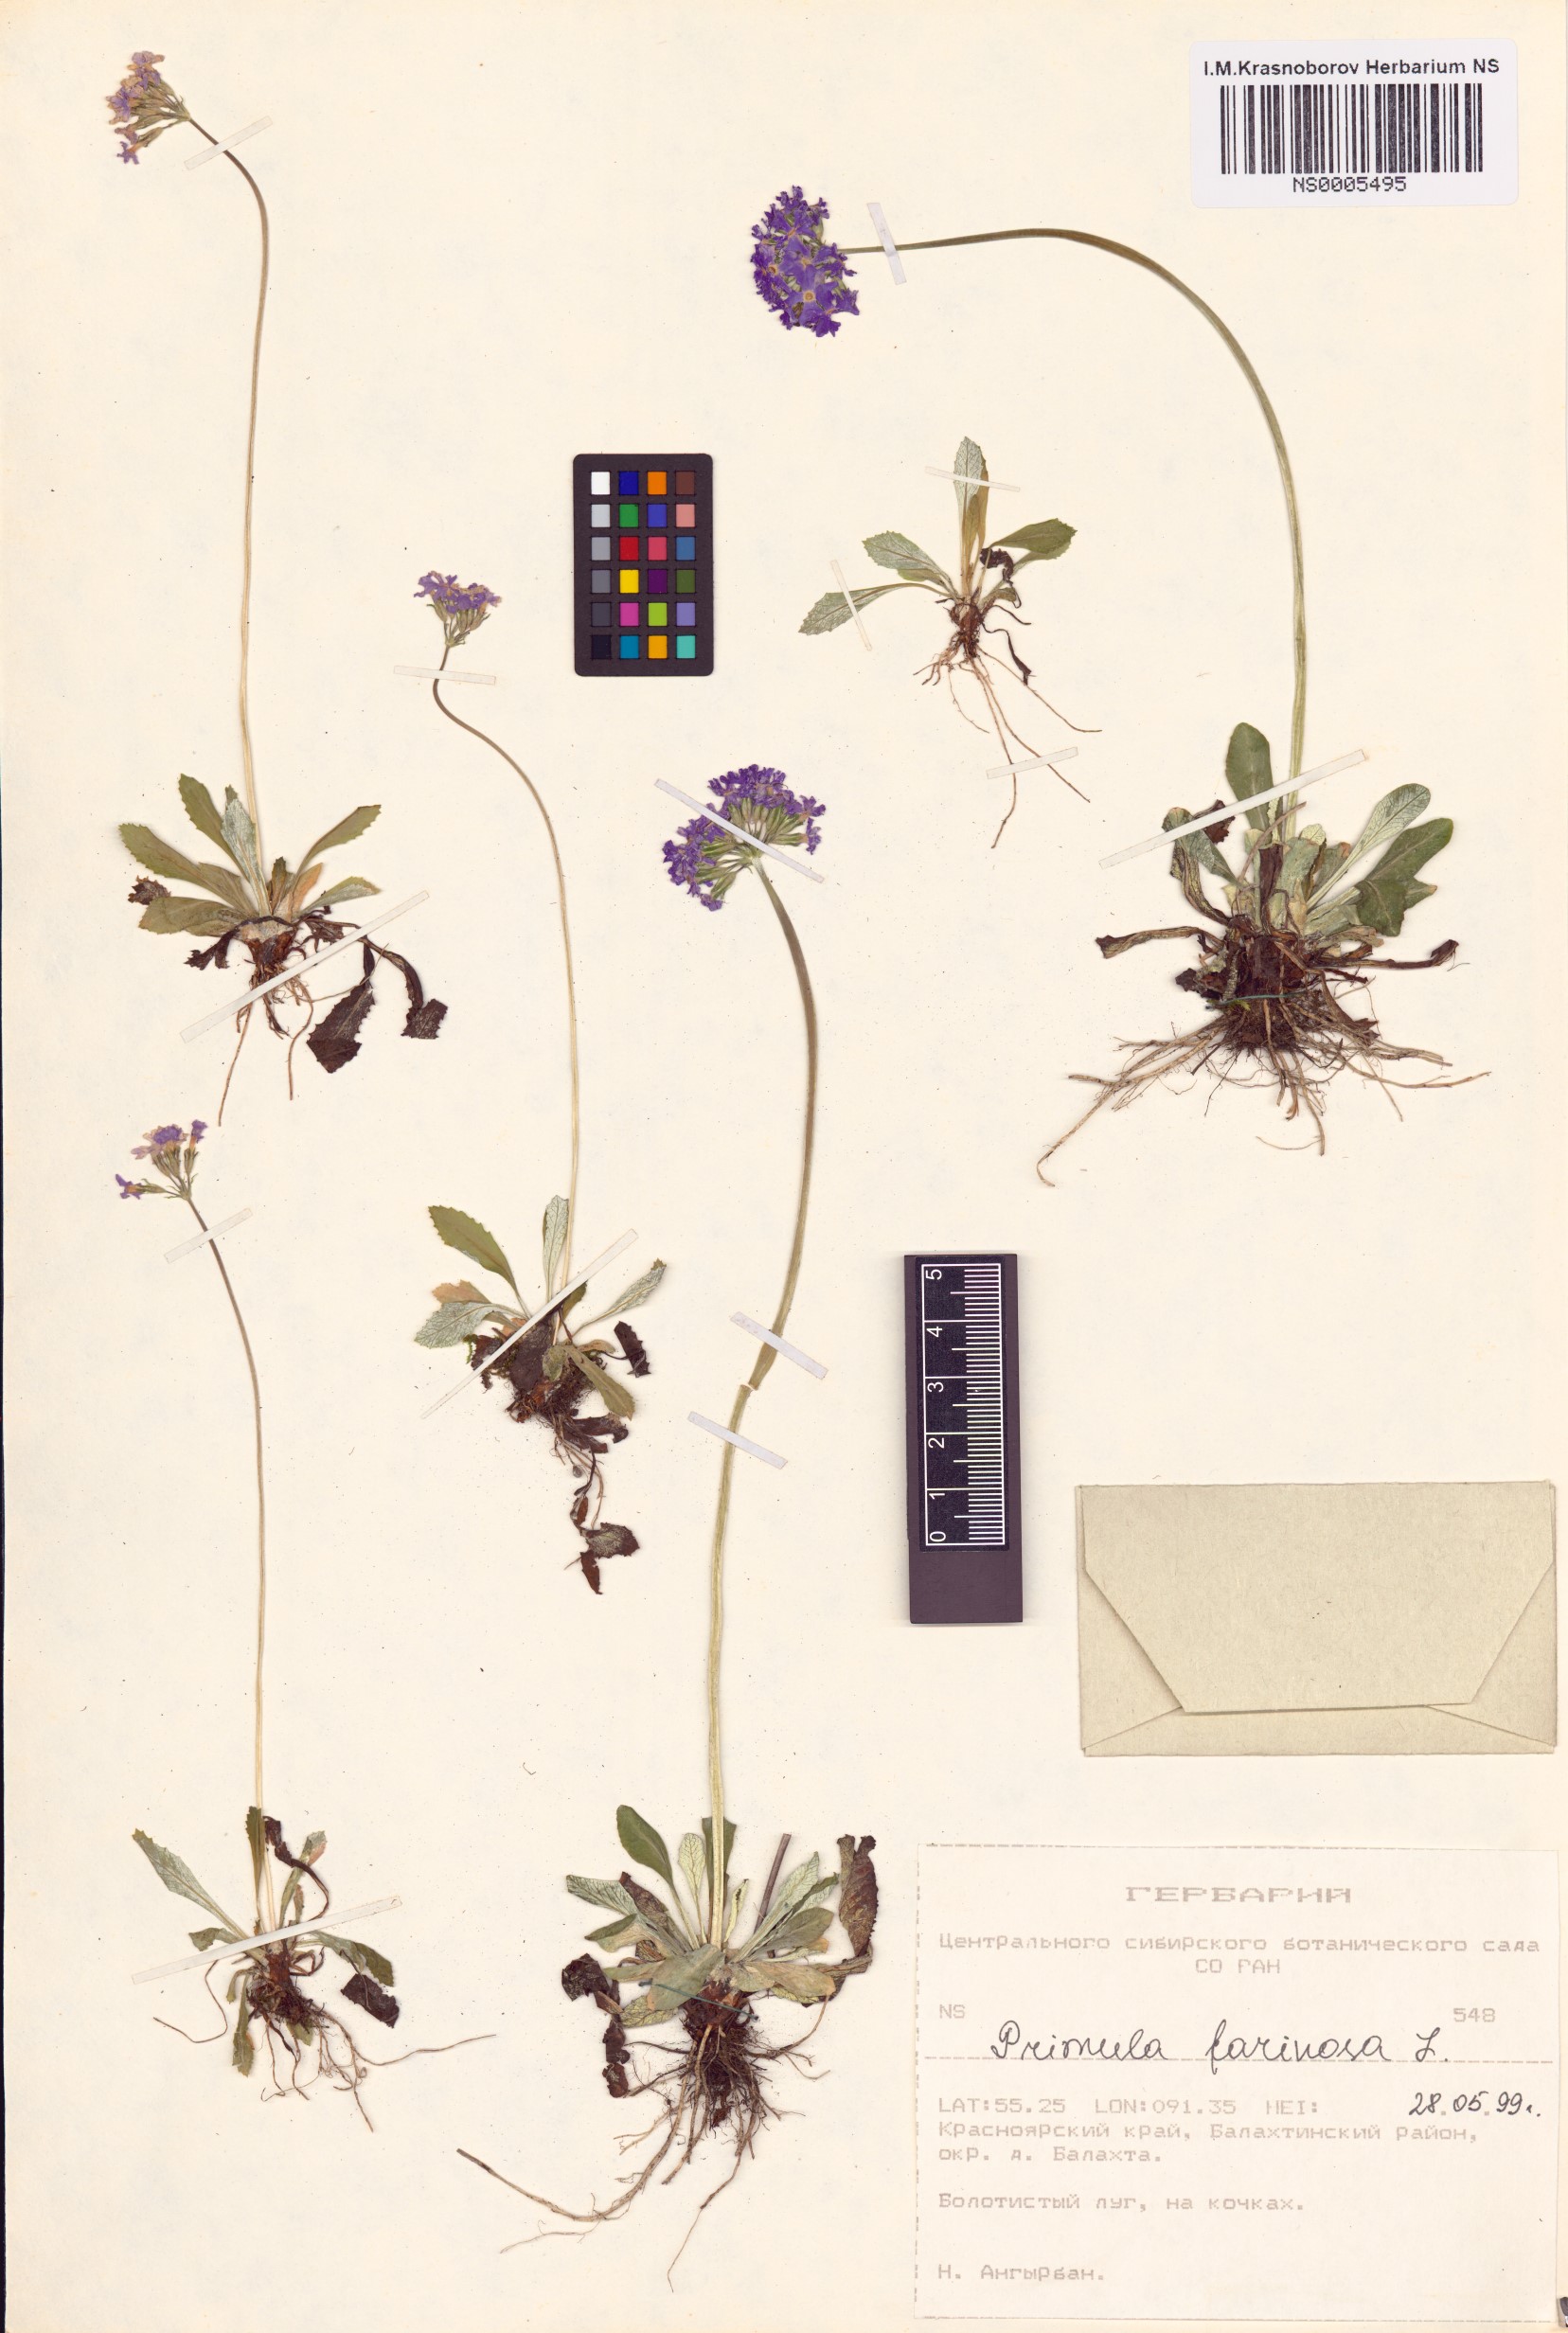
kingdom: Plantae
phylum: Tracheophyta
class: Magnoliopsida
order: Ericales
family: Primulaceae
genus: Primula
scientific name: Primula farinosa
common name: Bird's-eye primrose
